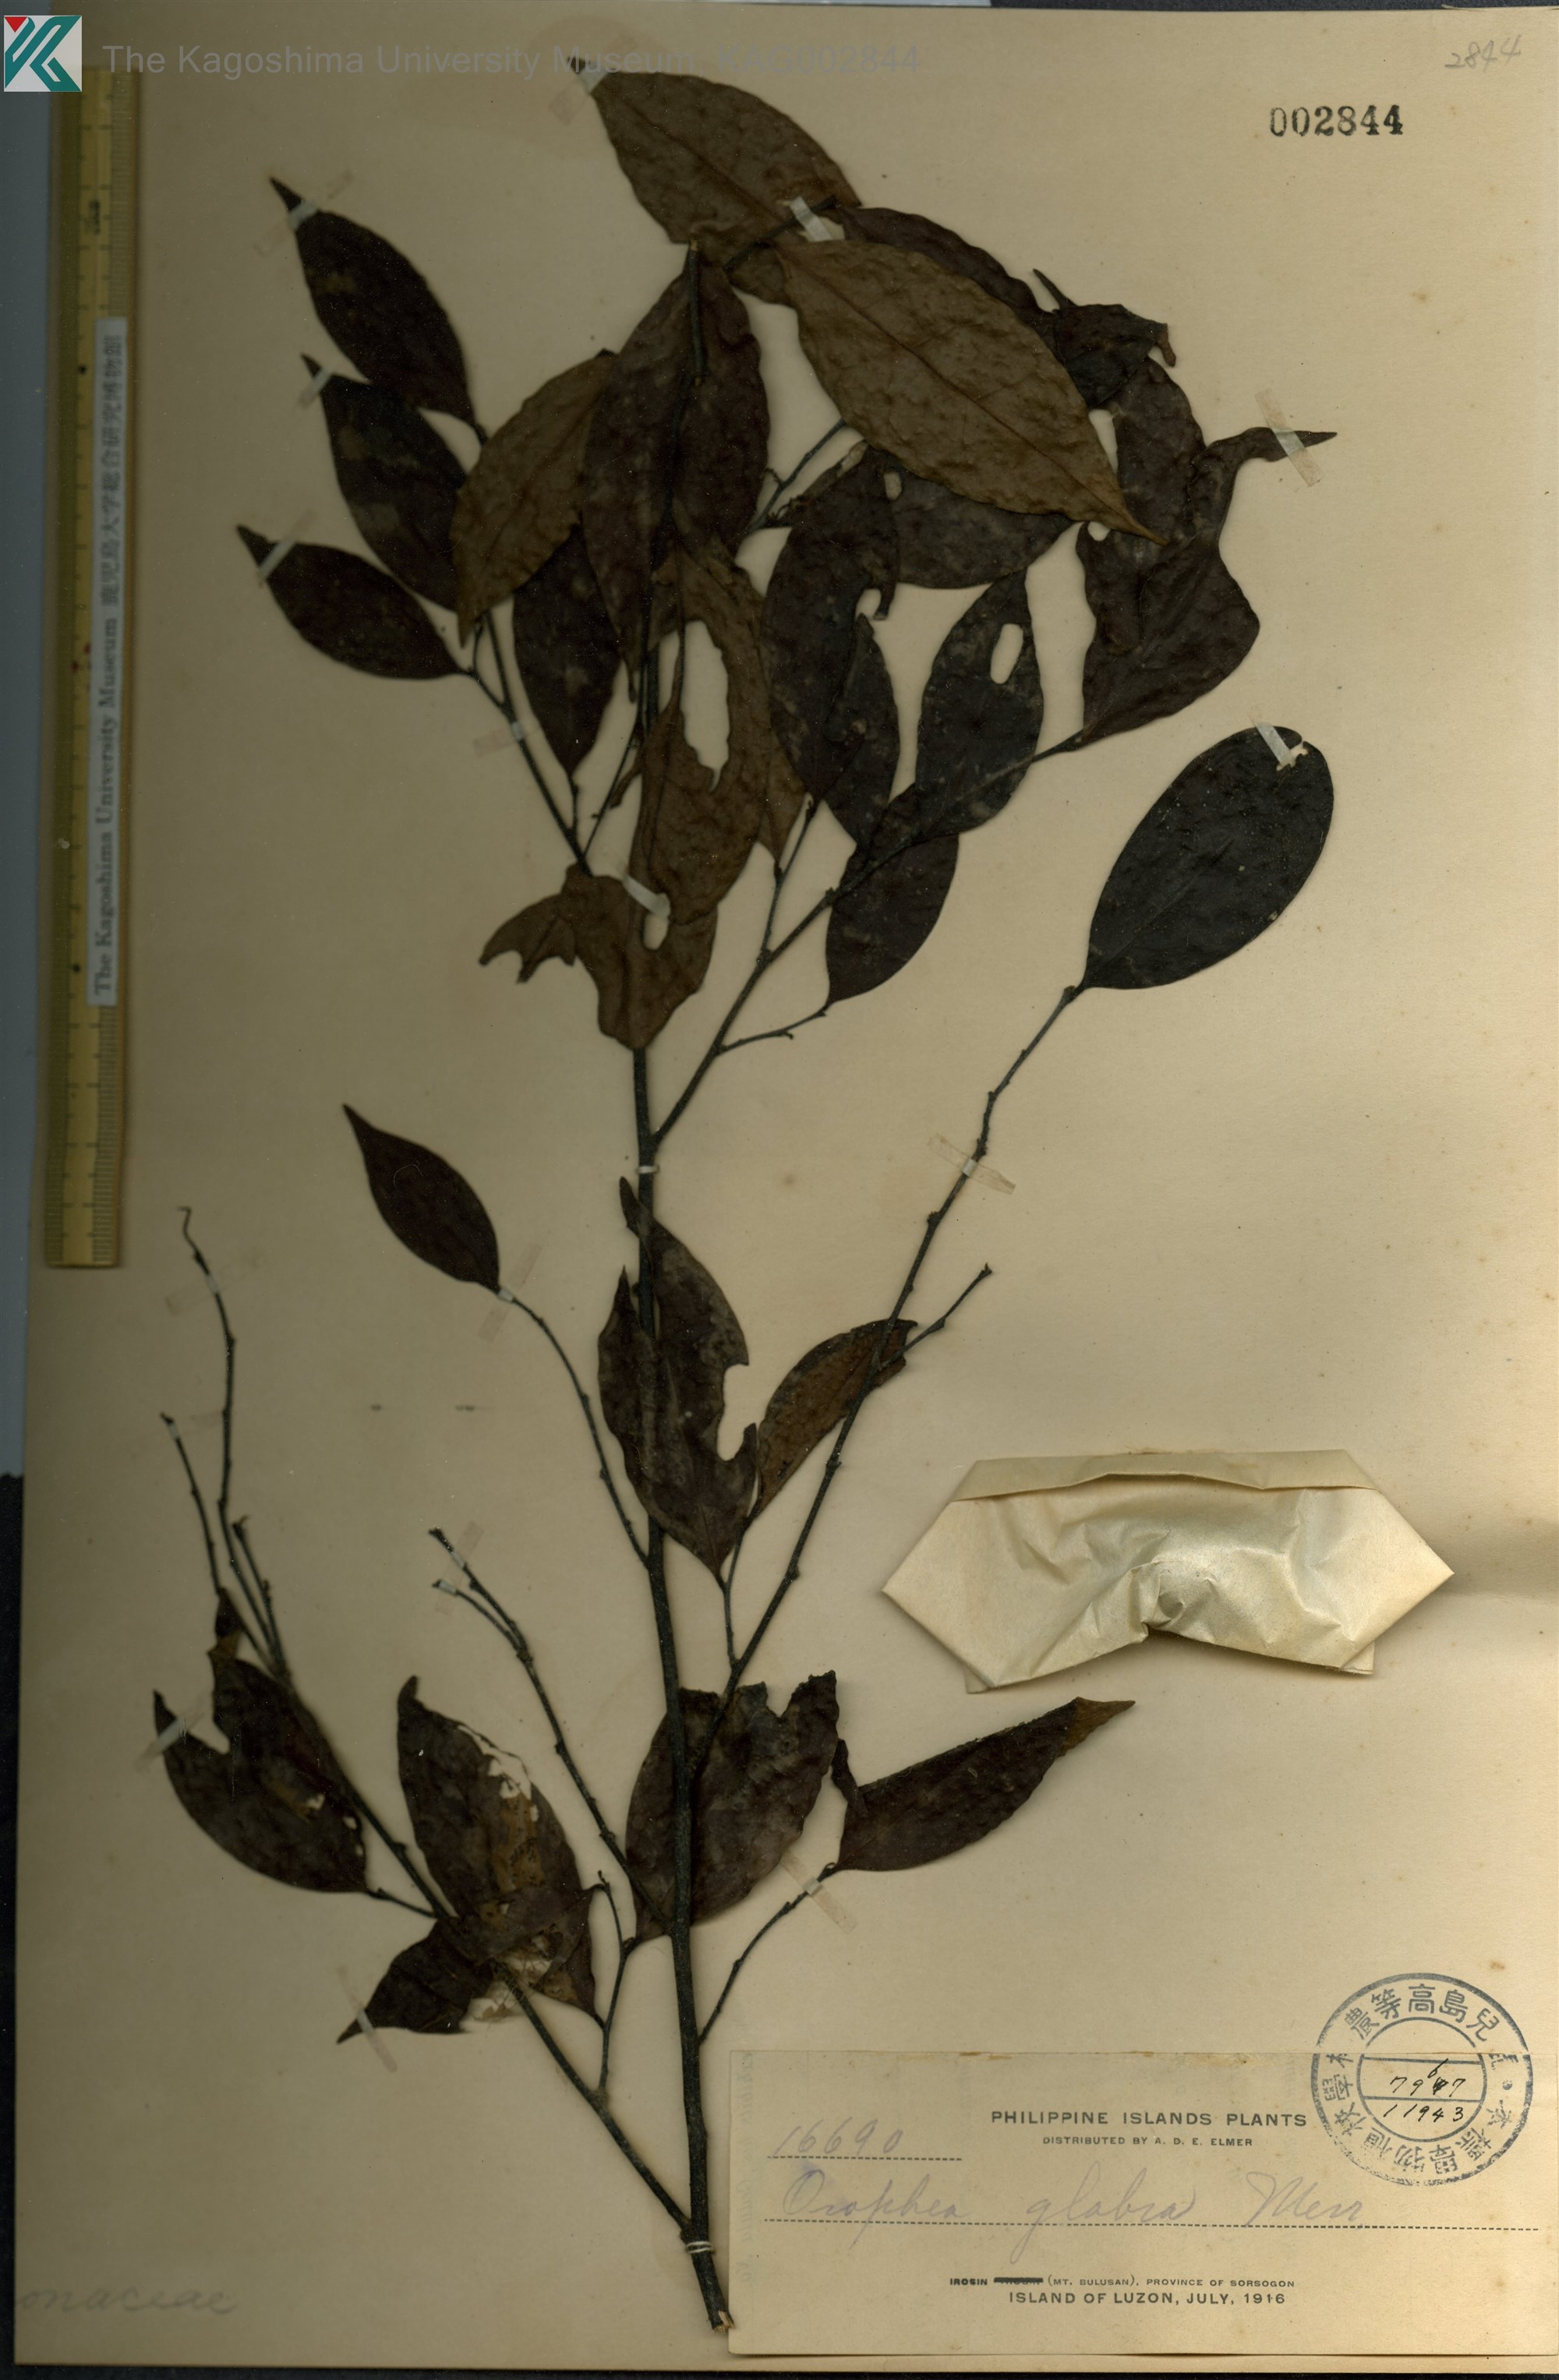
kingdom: Plantae
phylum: Tracheophyta
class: Magnoliopsida
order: Magnoliales
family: Annonaceae
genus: Orophea
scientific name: Orophea glabra
